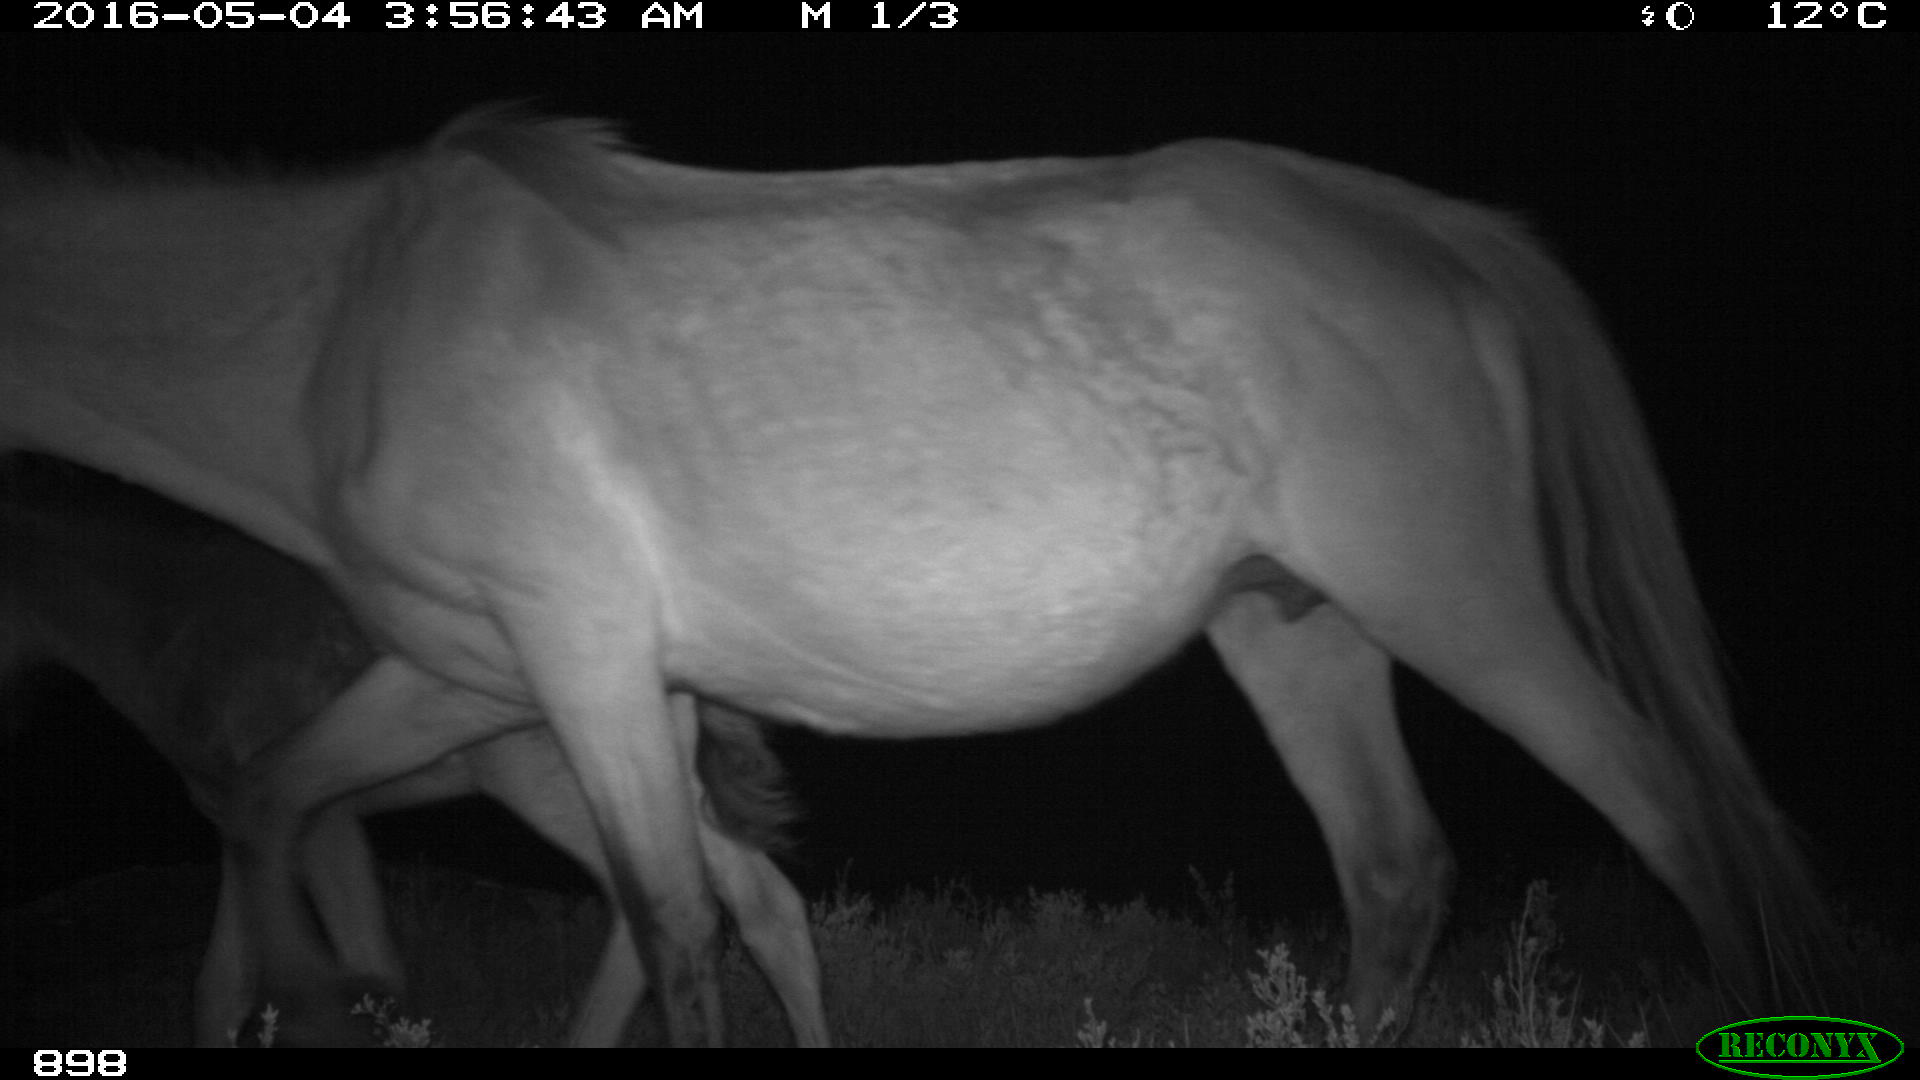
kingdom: Animalia
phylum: Chordata
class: Mammalia
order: Perissodactyla
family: Equidae
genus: Equus
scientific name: Equus caballus
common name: Horse
